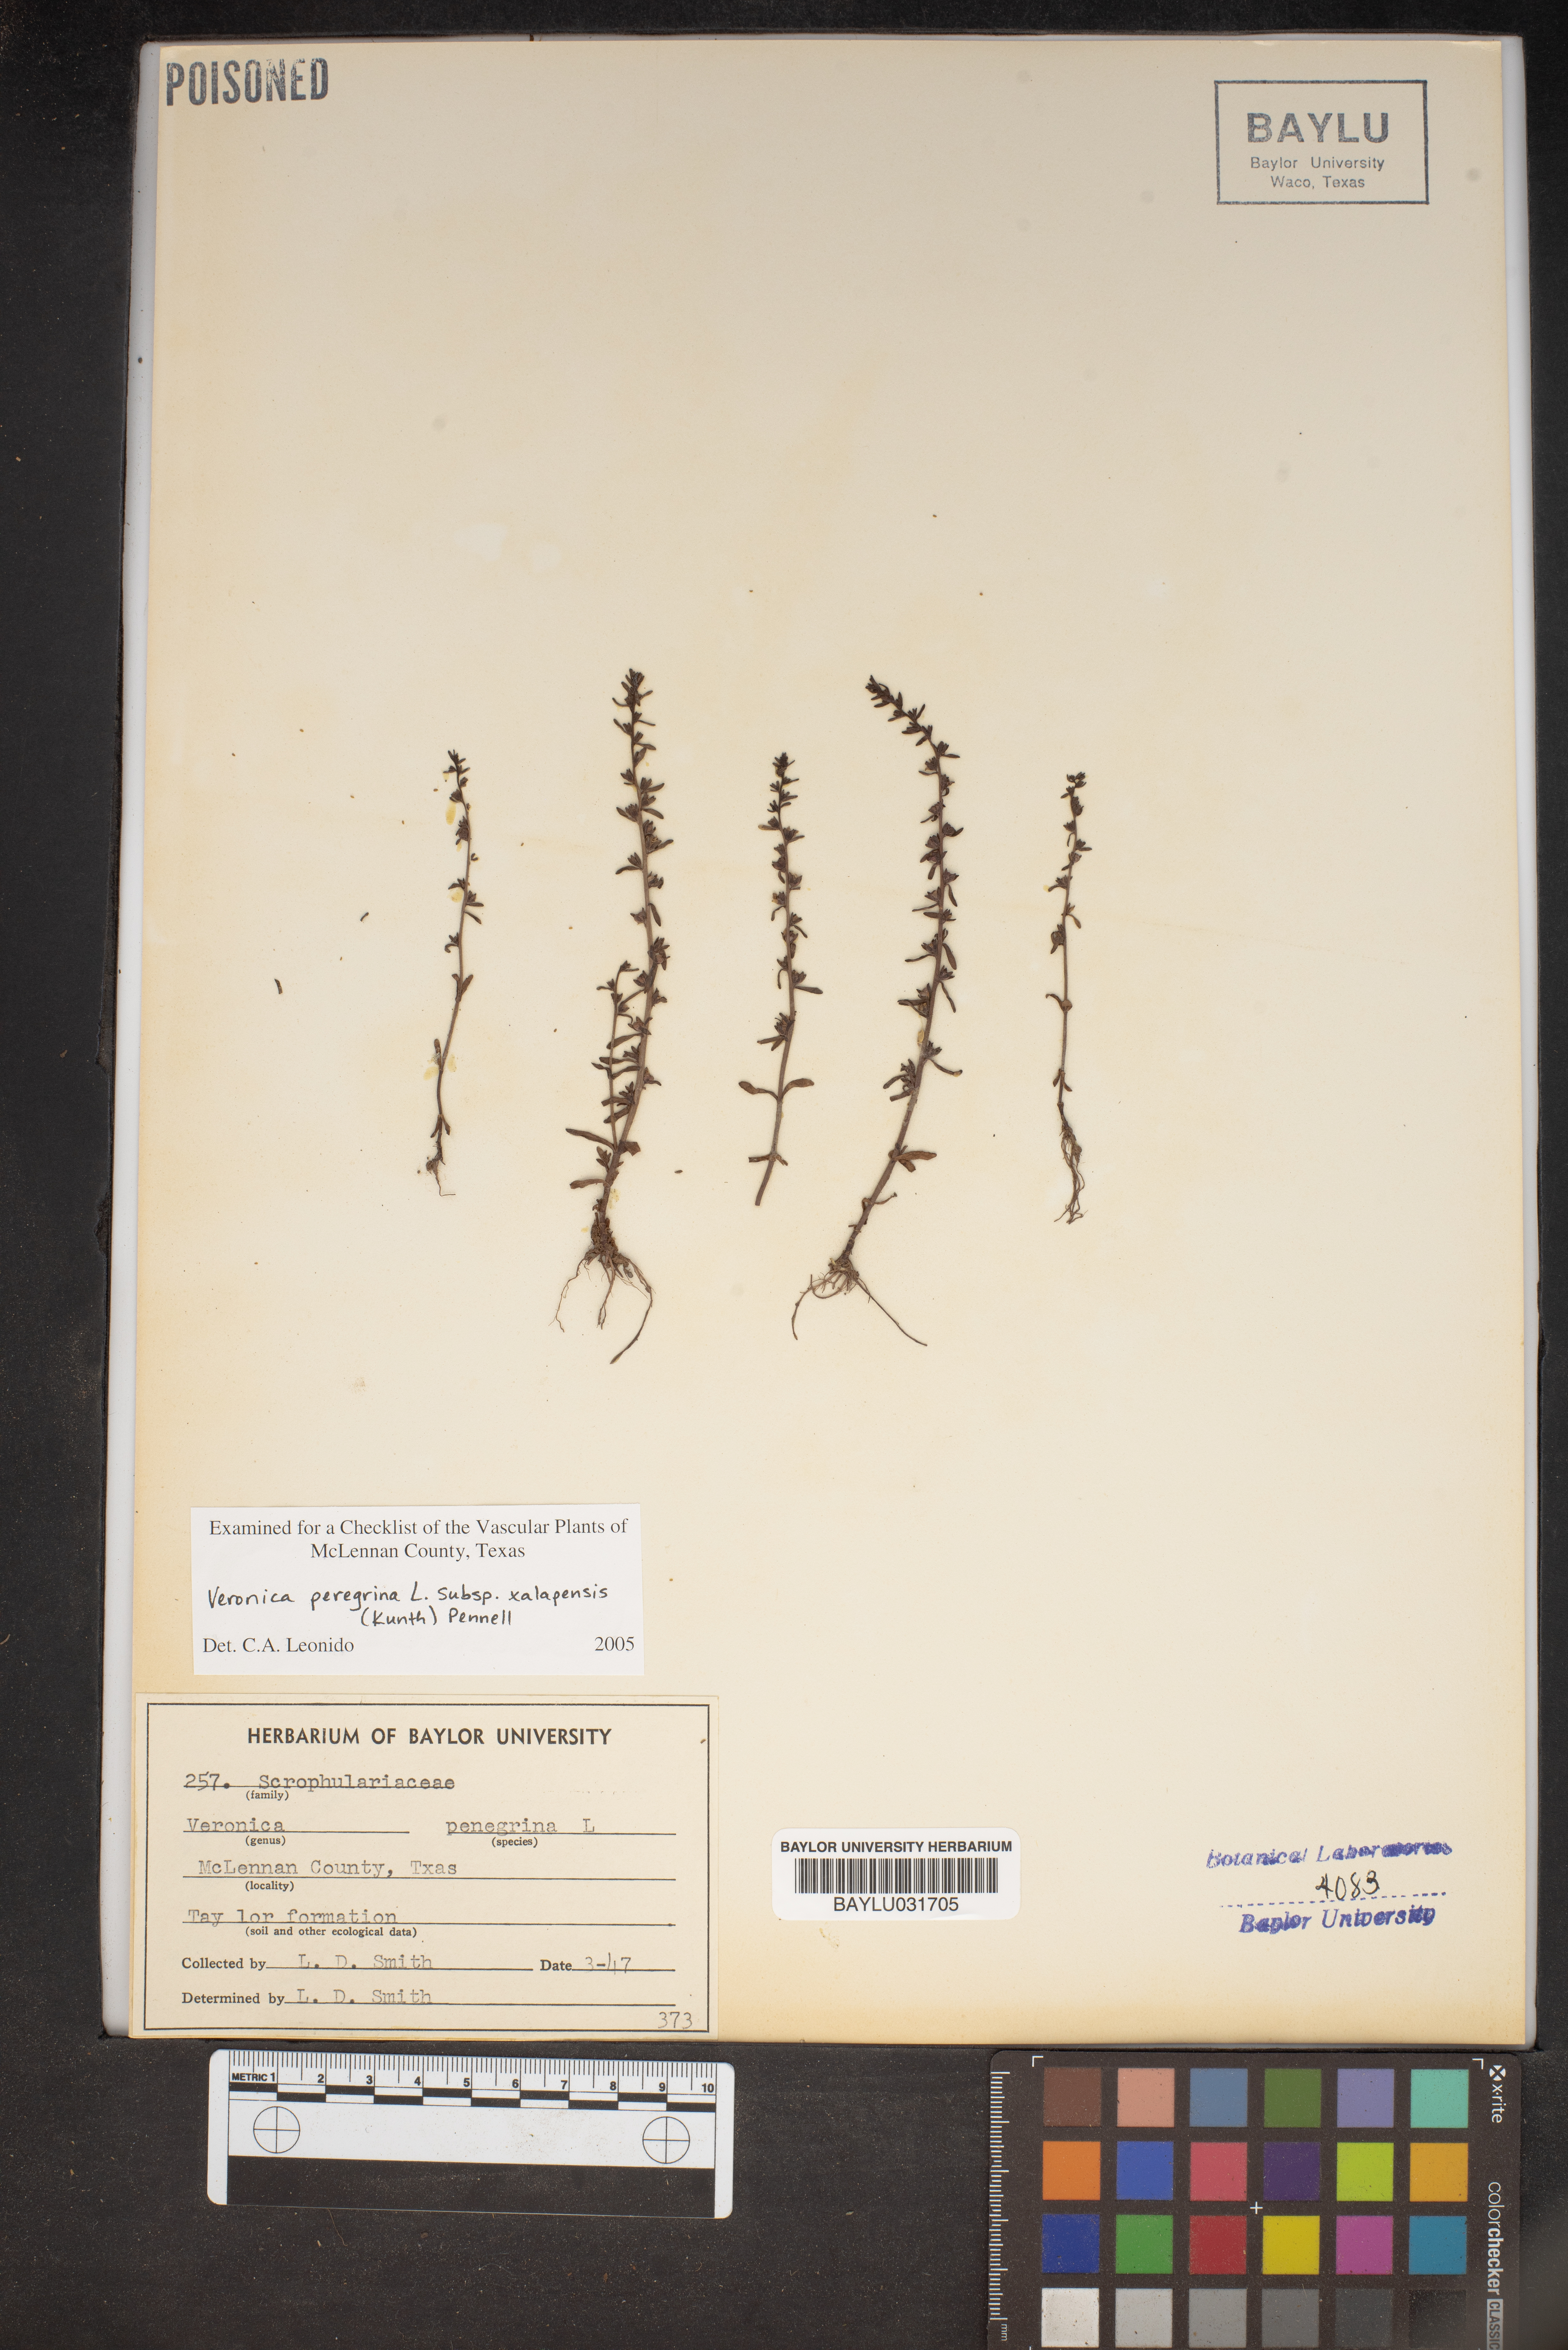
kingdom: Plantae
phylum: Tracheophyta
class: Magnoliopsida
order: Lamiales
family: Plantaginaceae
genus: Veronica
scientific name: Veronica peregrina
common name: Neckweed
